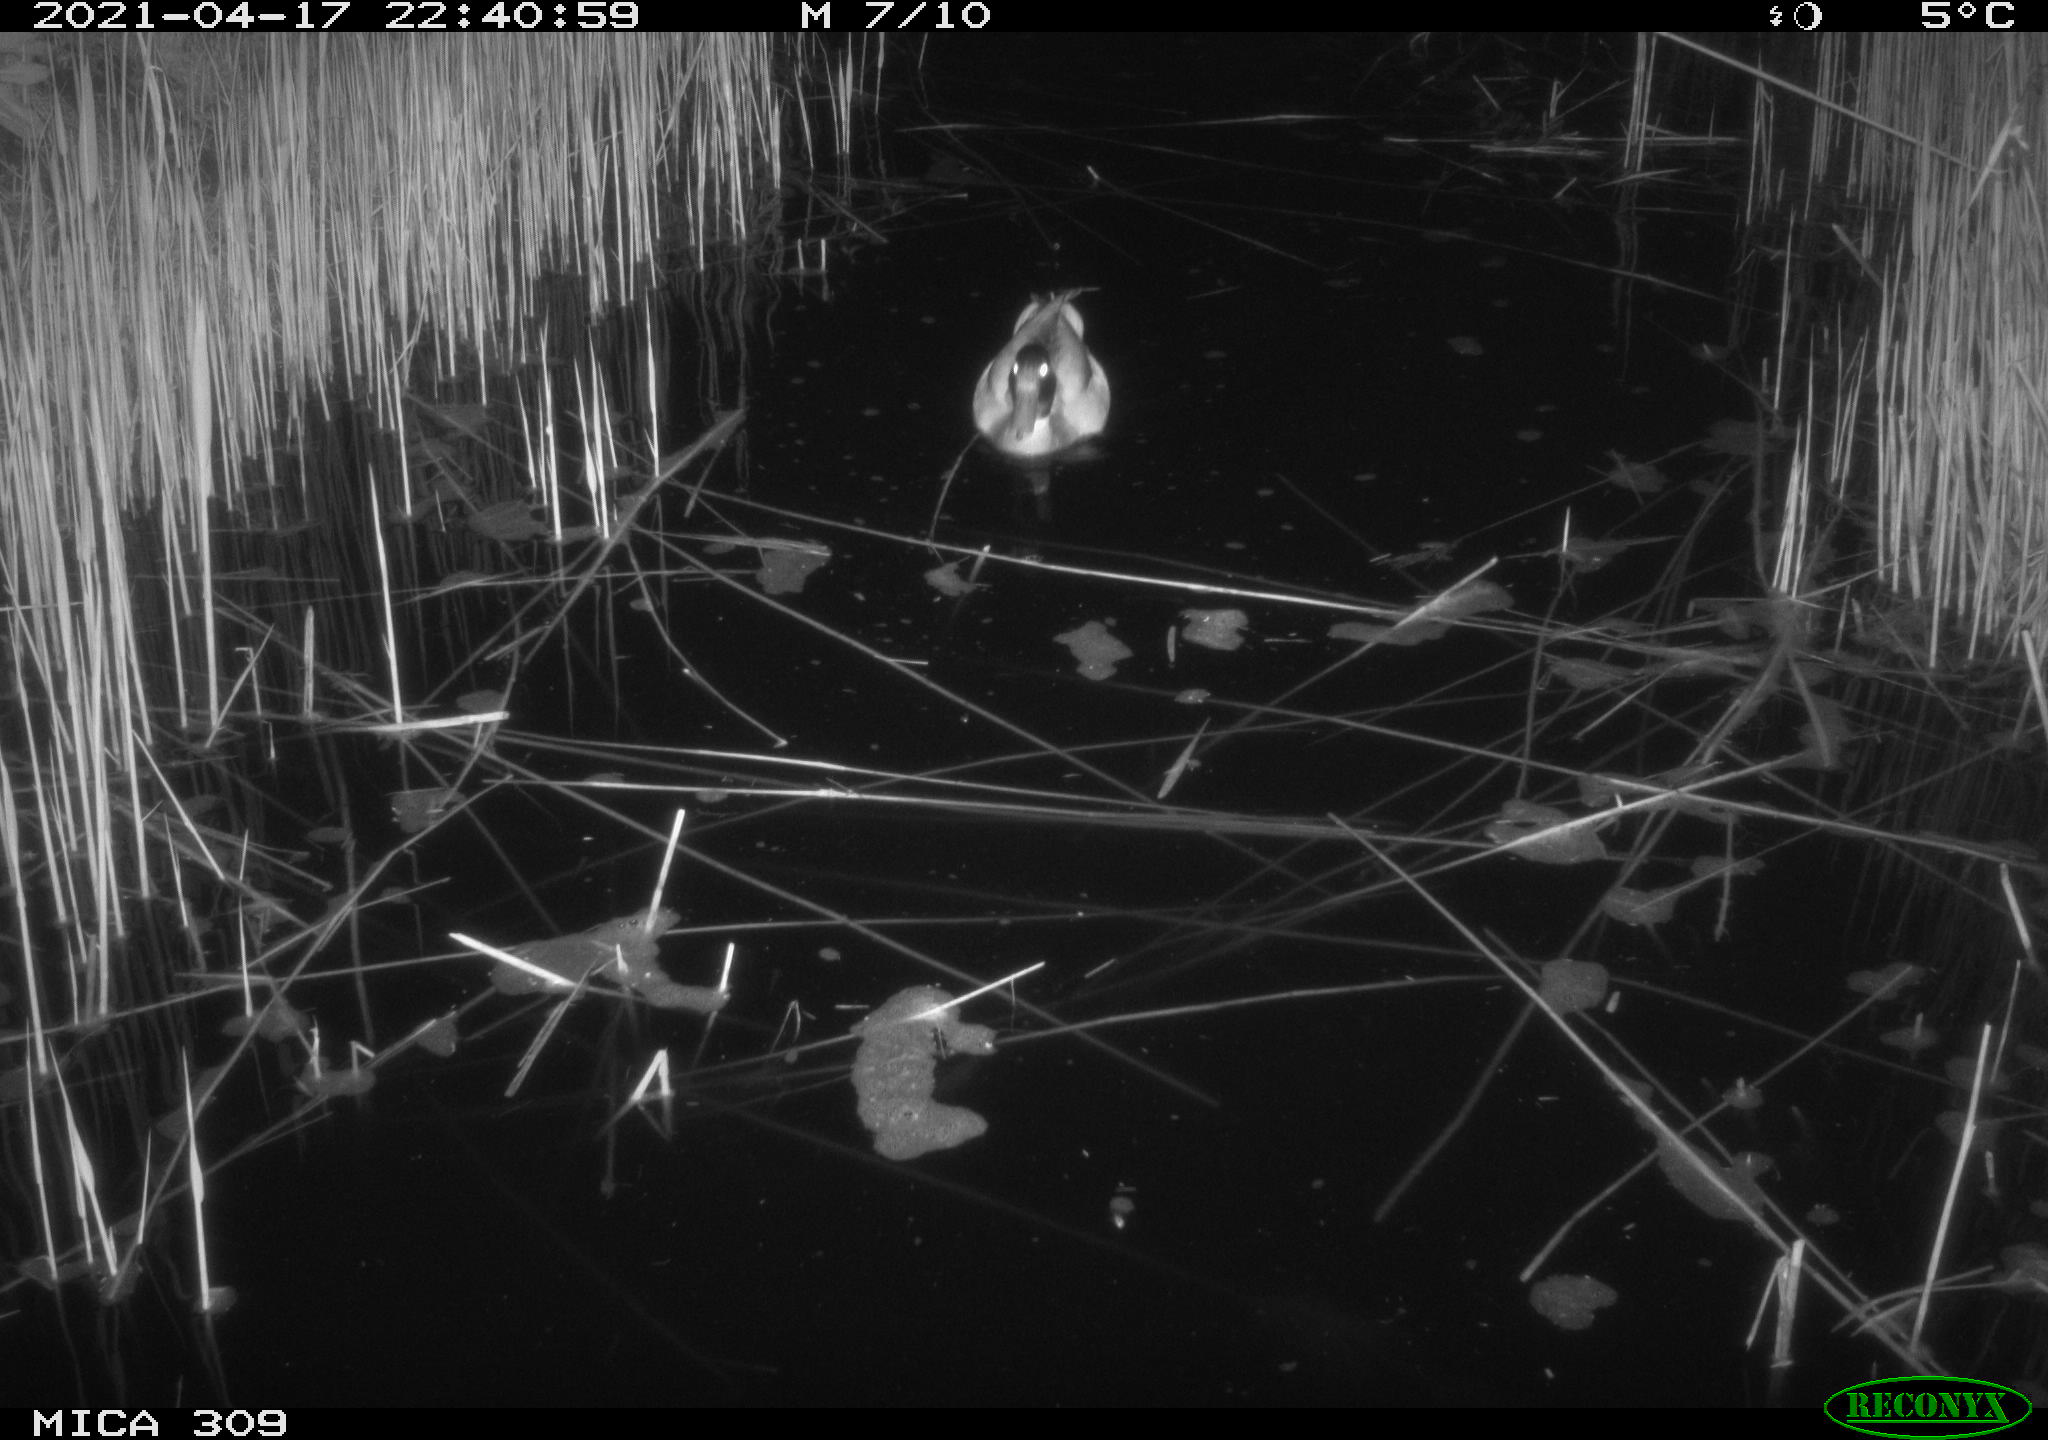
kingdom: Animalia
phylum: Chordata
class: Aves
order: Anseriformes
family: Anatidae
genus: Anas
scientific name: Anas platyrhynchos
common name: Mallard
